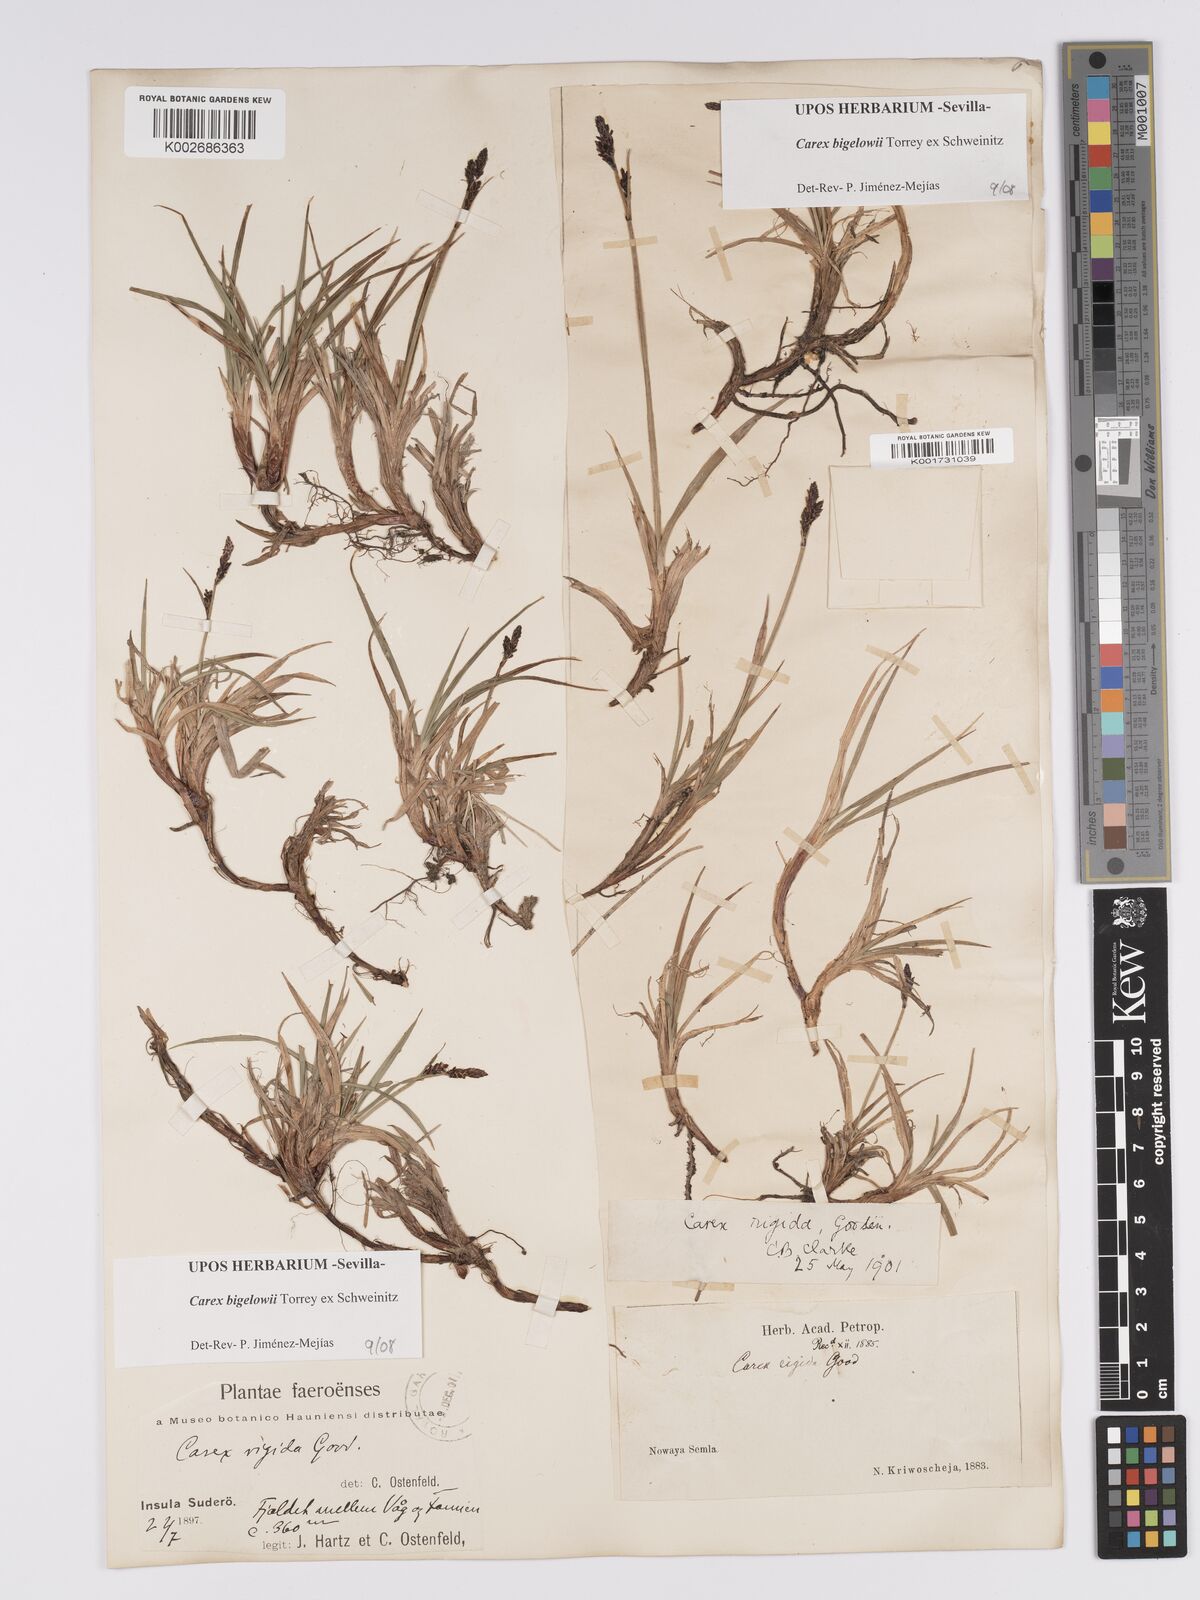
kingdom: Plantae
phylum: Tracheophyta
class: Liliopsida
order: Poales
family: Cyperaceae
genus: Carex
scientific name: Carex bigelowii
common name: Stiff sedge
